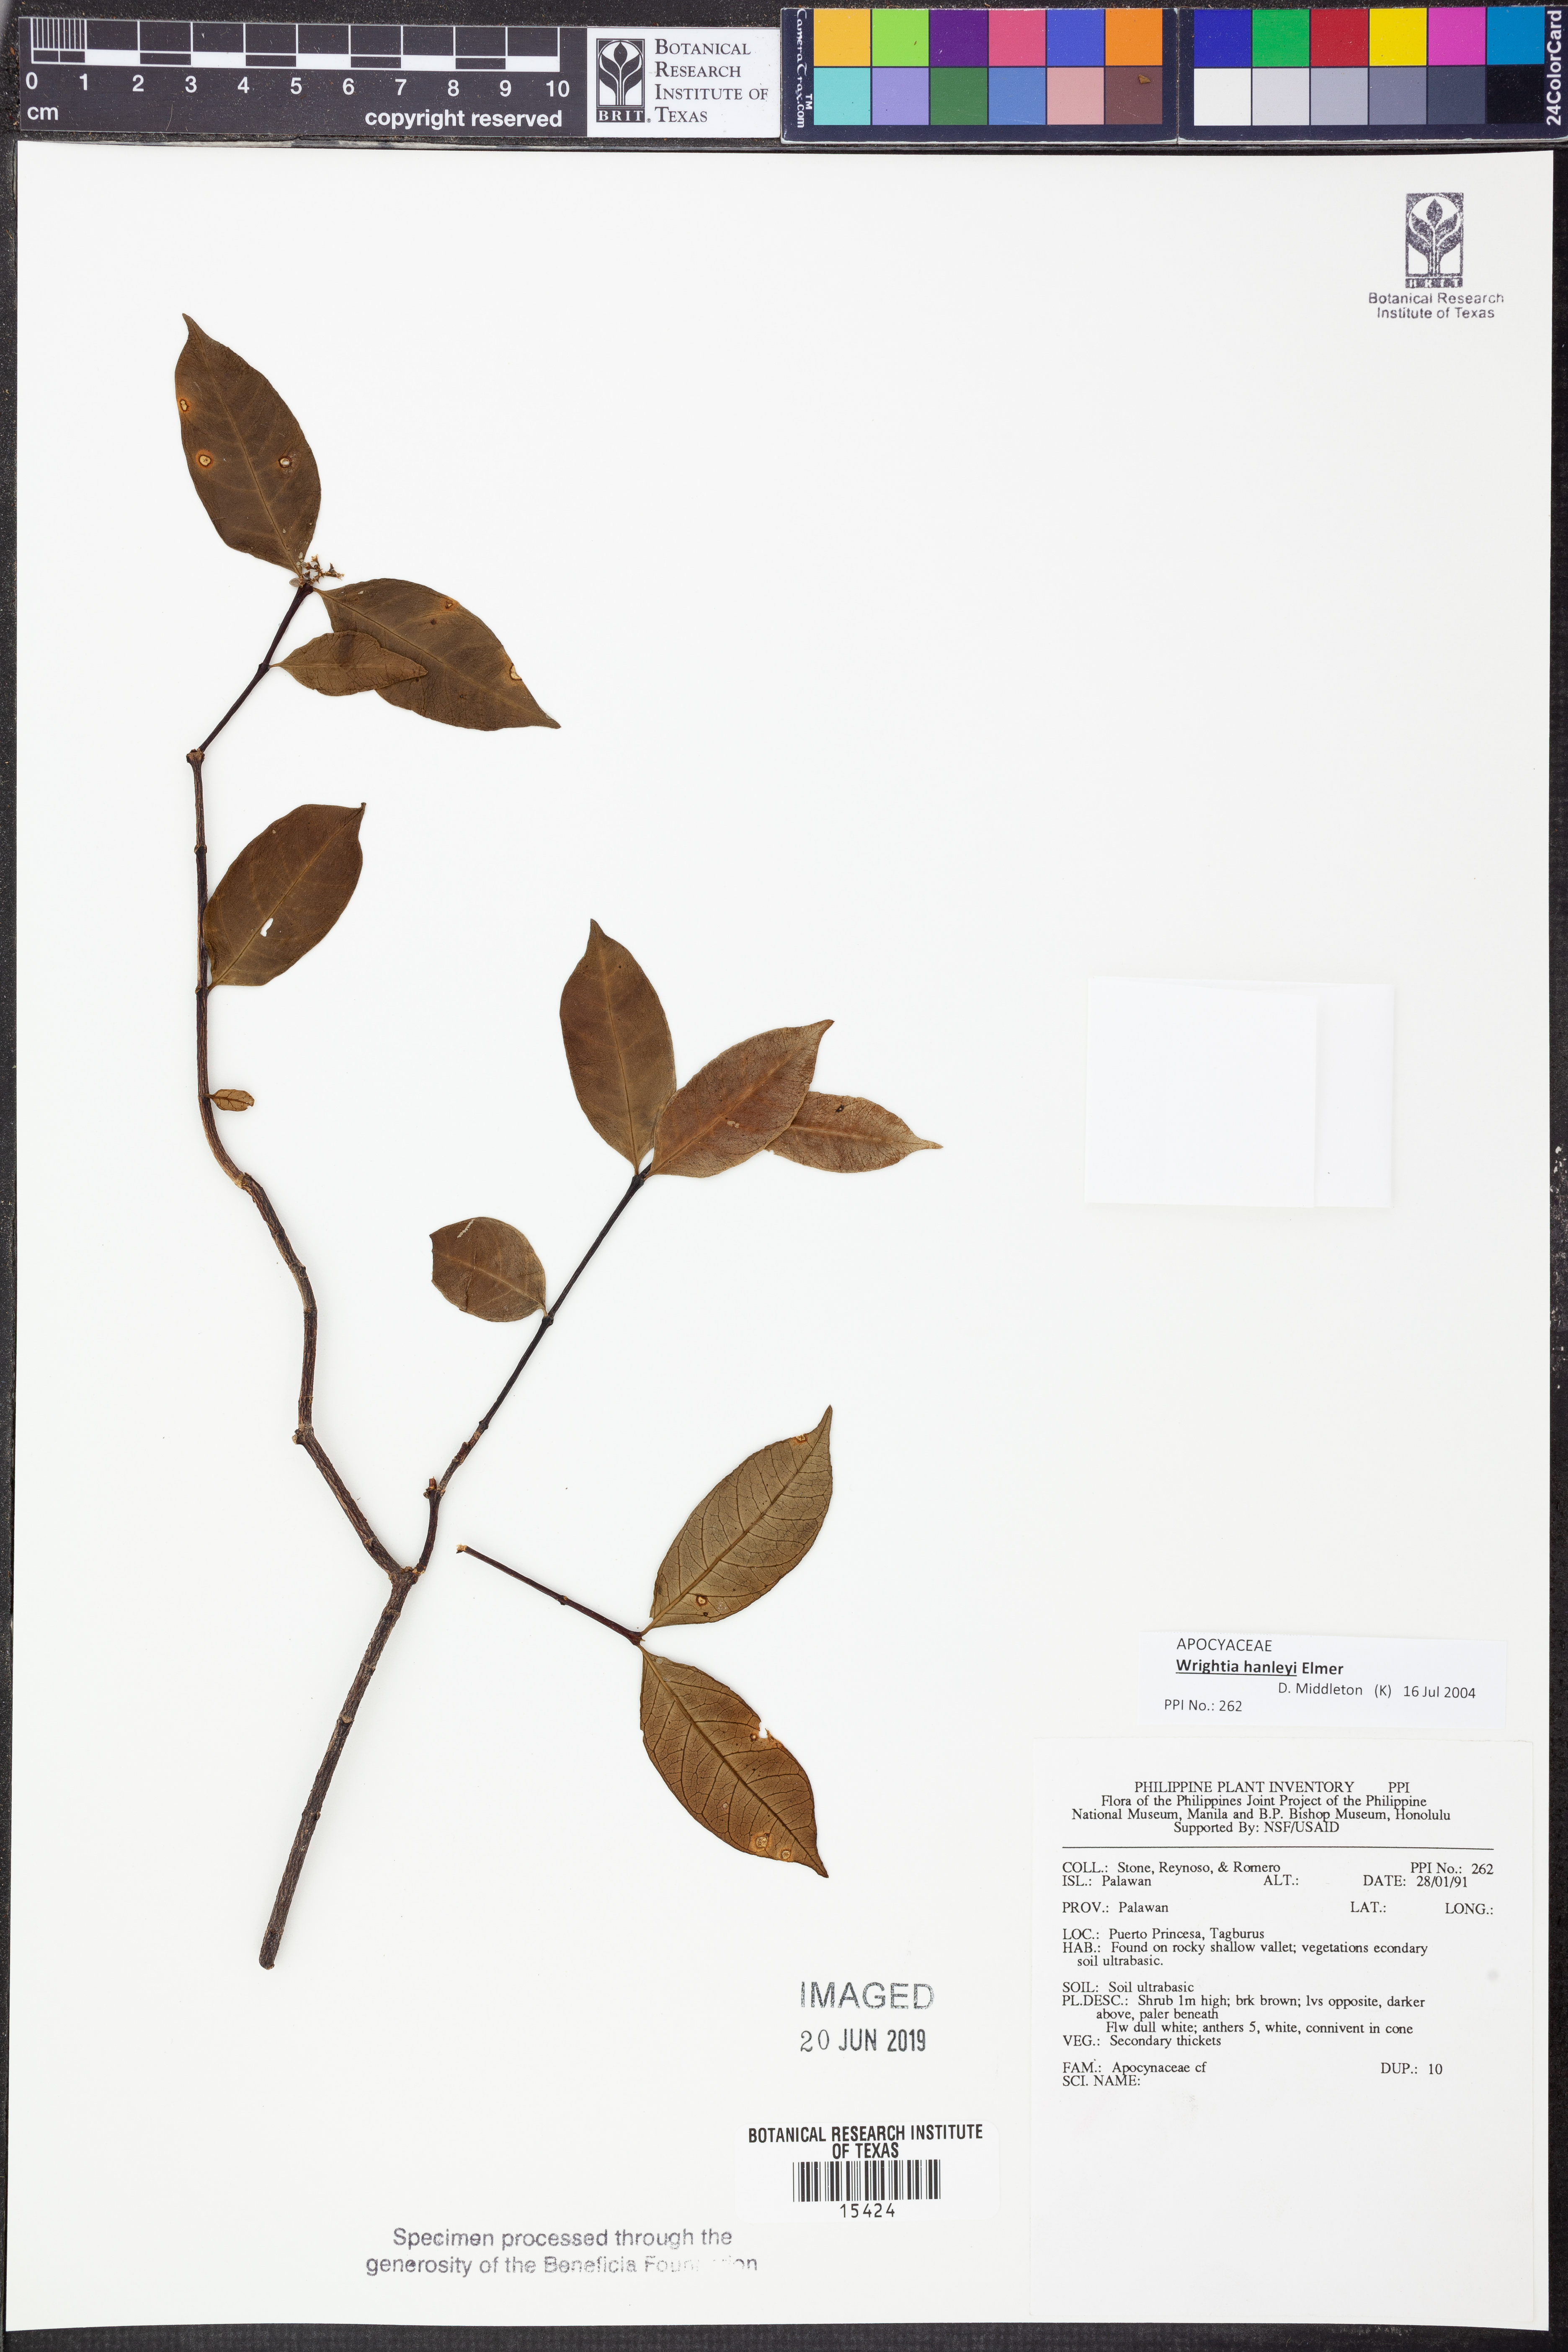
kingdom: Plantae
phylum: Tracheophyta
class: Magnoliopsida
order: Gentianales
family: Apocynaceae
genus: Wrightia
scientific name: Wrightia hanleyi
